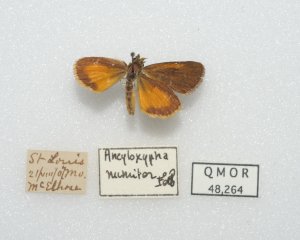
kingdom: Animalia
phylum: Arthropoda
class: Insecta
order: Lepidoptera
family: Hesperiidae
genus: Ancyloxypha
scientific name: Ancyloxypha numitor
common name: Least Skipper
